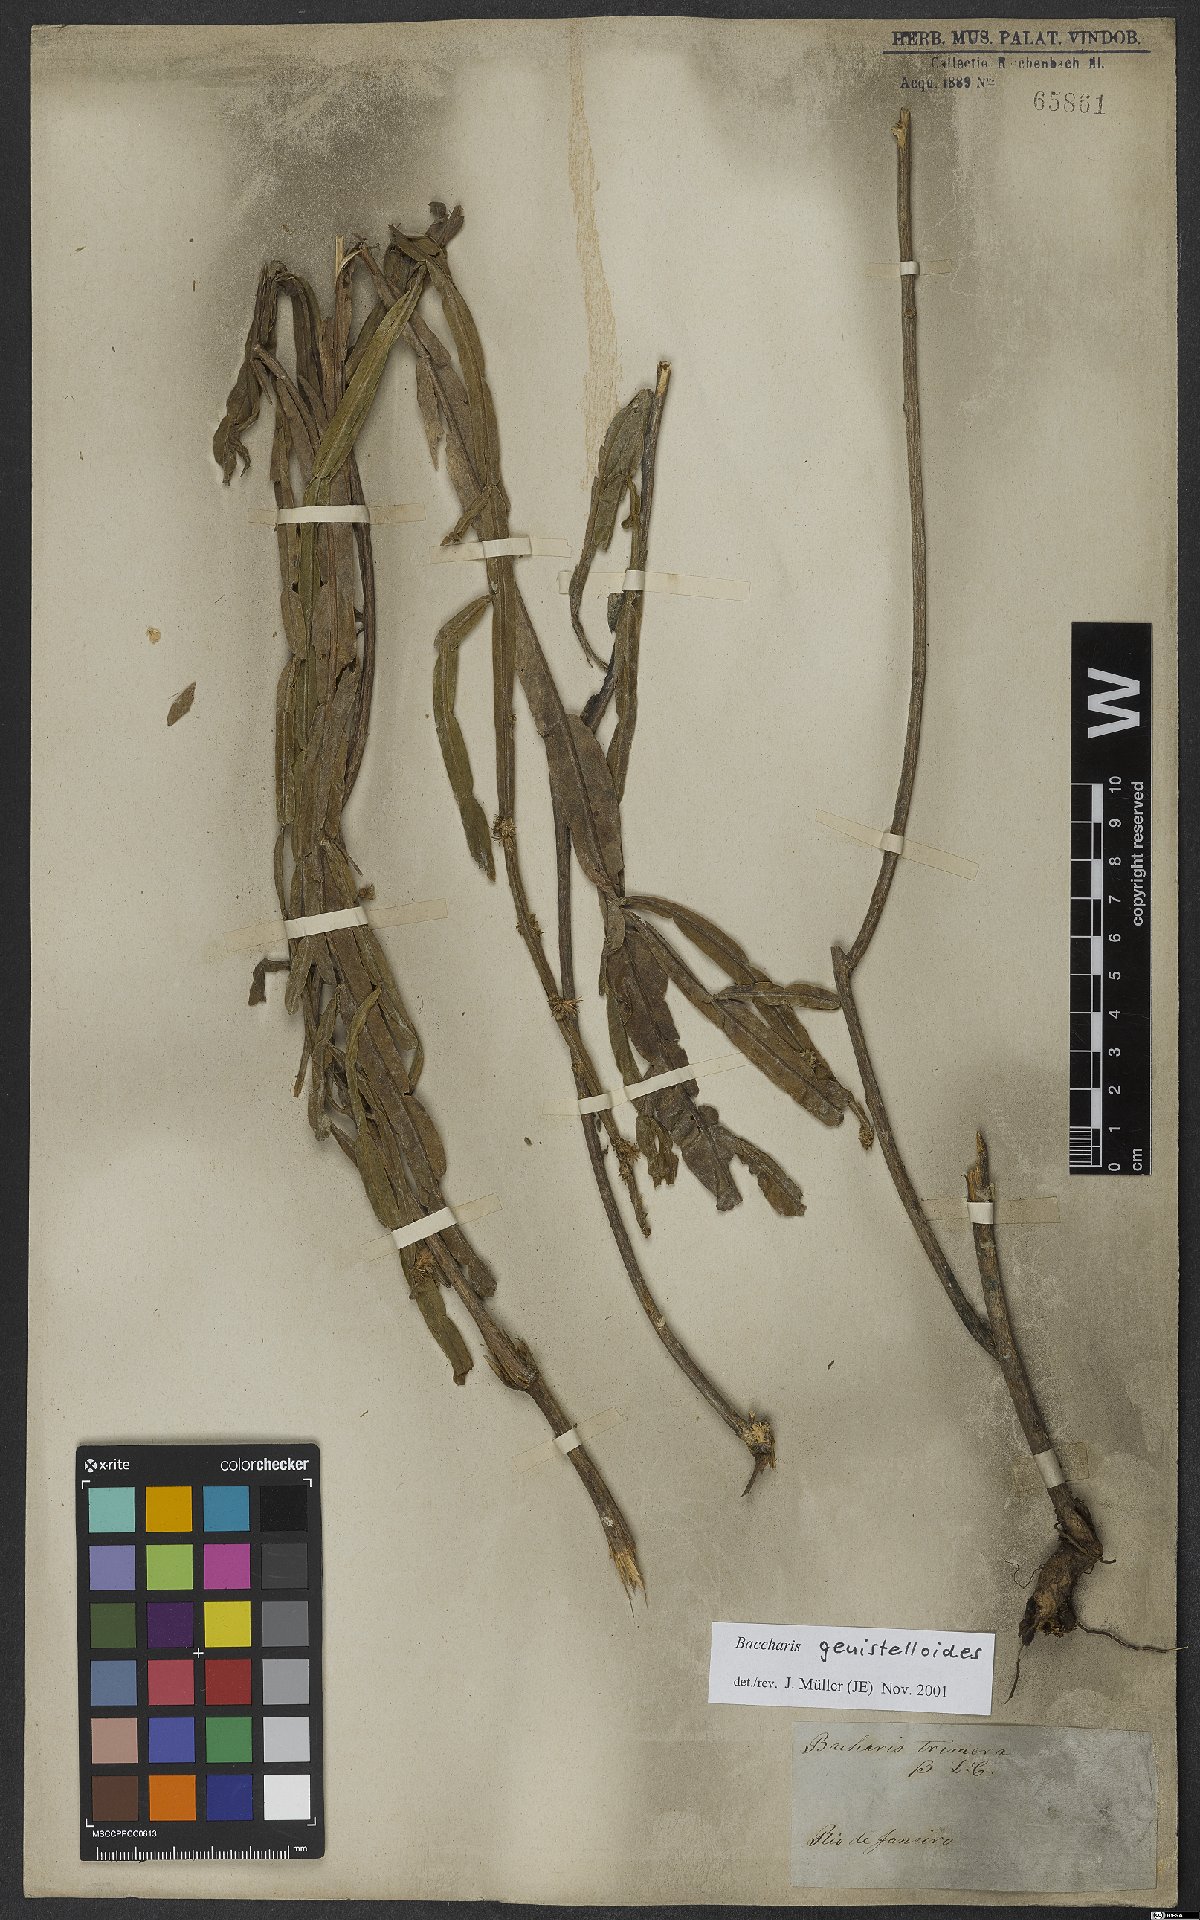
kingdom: Plantae
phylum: Tracheophyta
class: Magnoliopsida
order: Asterales
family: Asteraceae
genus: Baccharis
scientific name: Baccharis genistelloides
